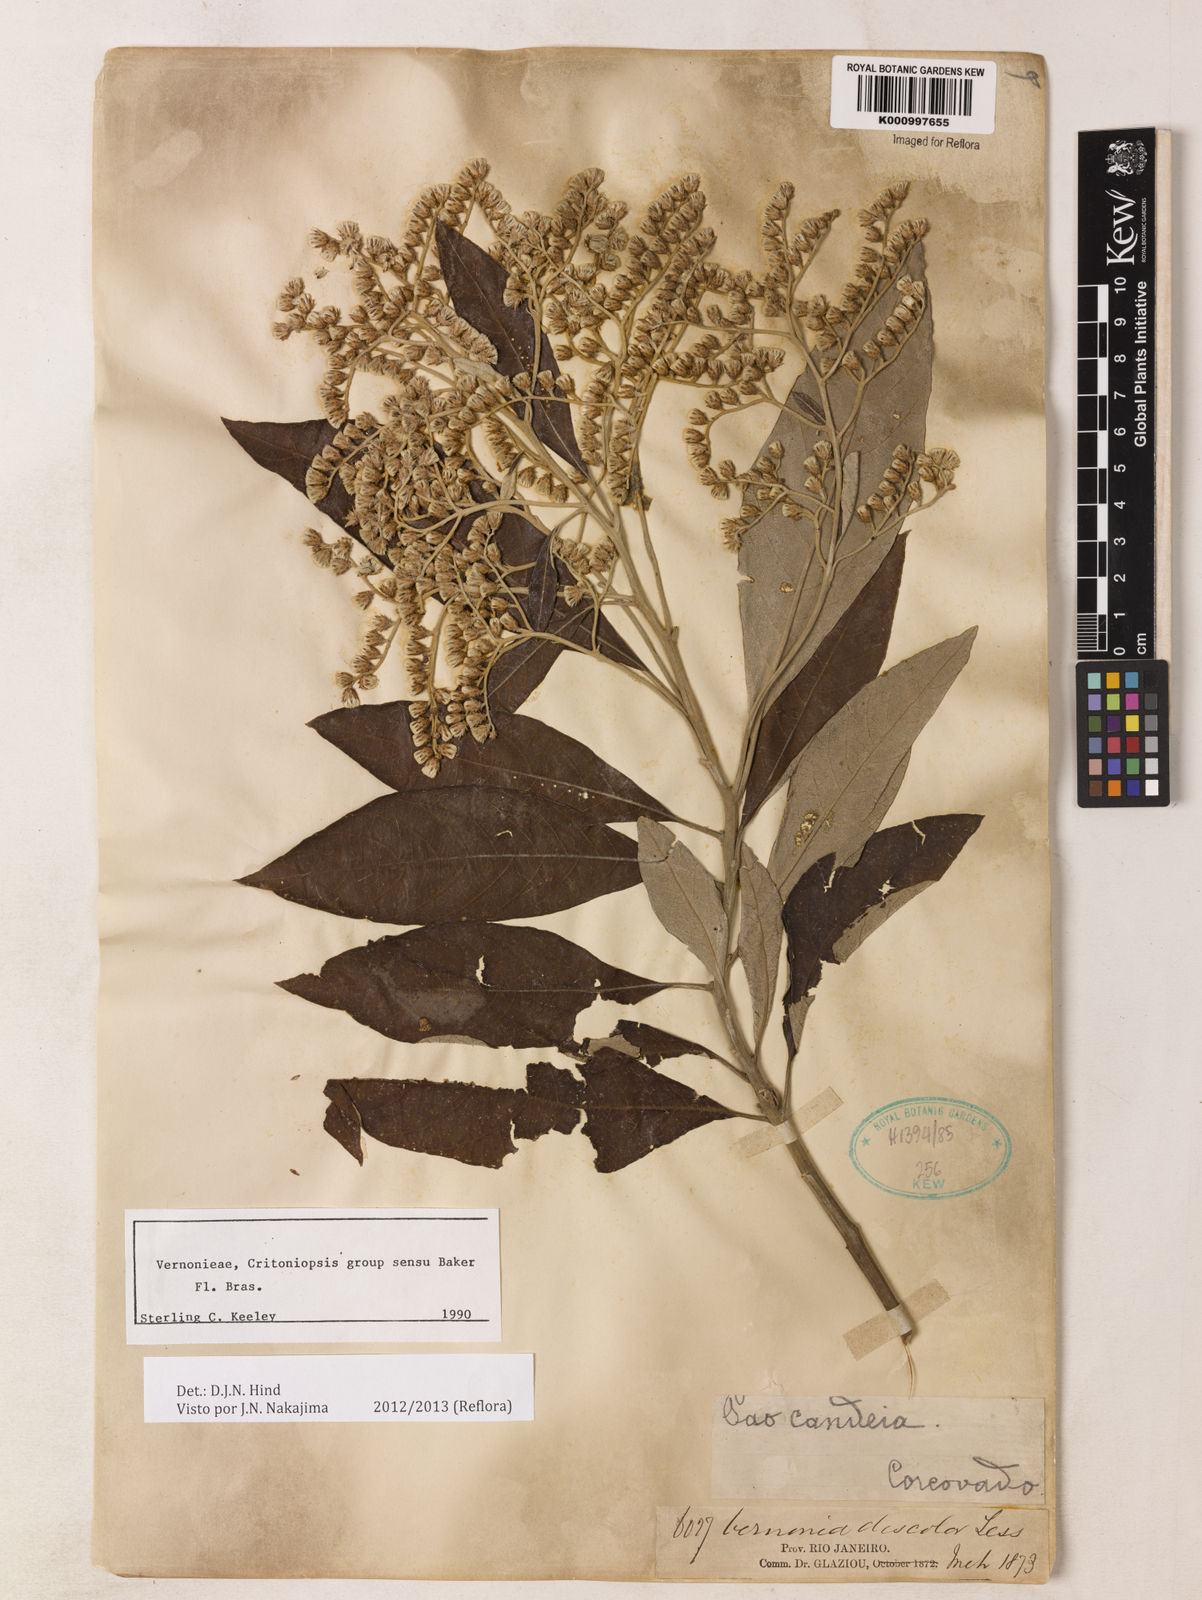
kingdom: Plantae
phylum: Tracheophyta
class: Magnoliopsida
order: Asterales
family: Asteraceae
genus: Vernonanthura
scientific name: Vernonanthura discolor
